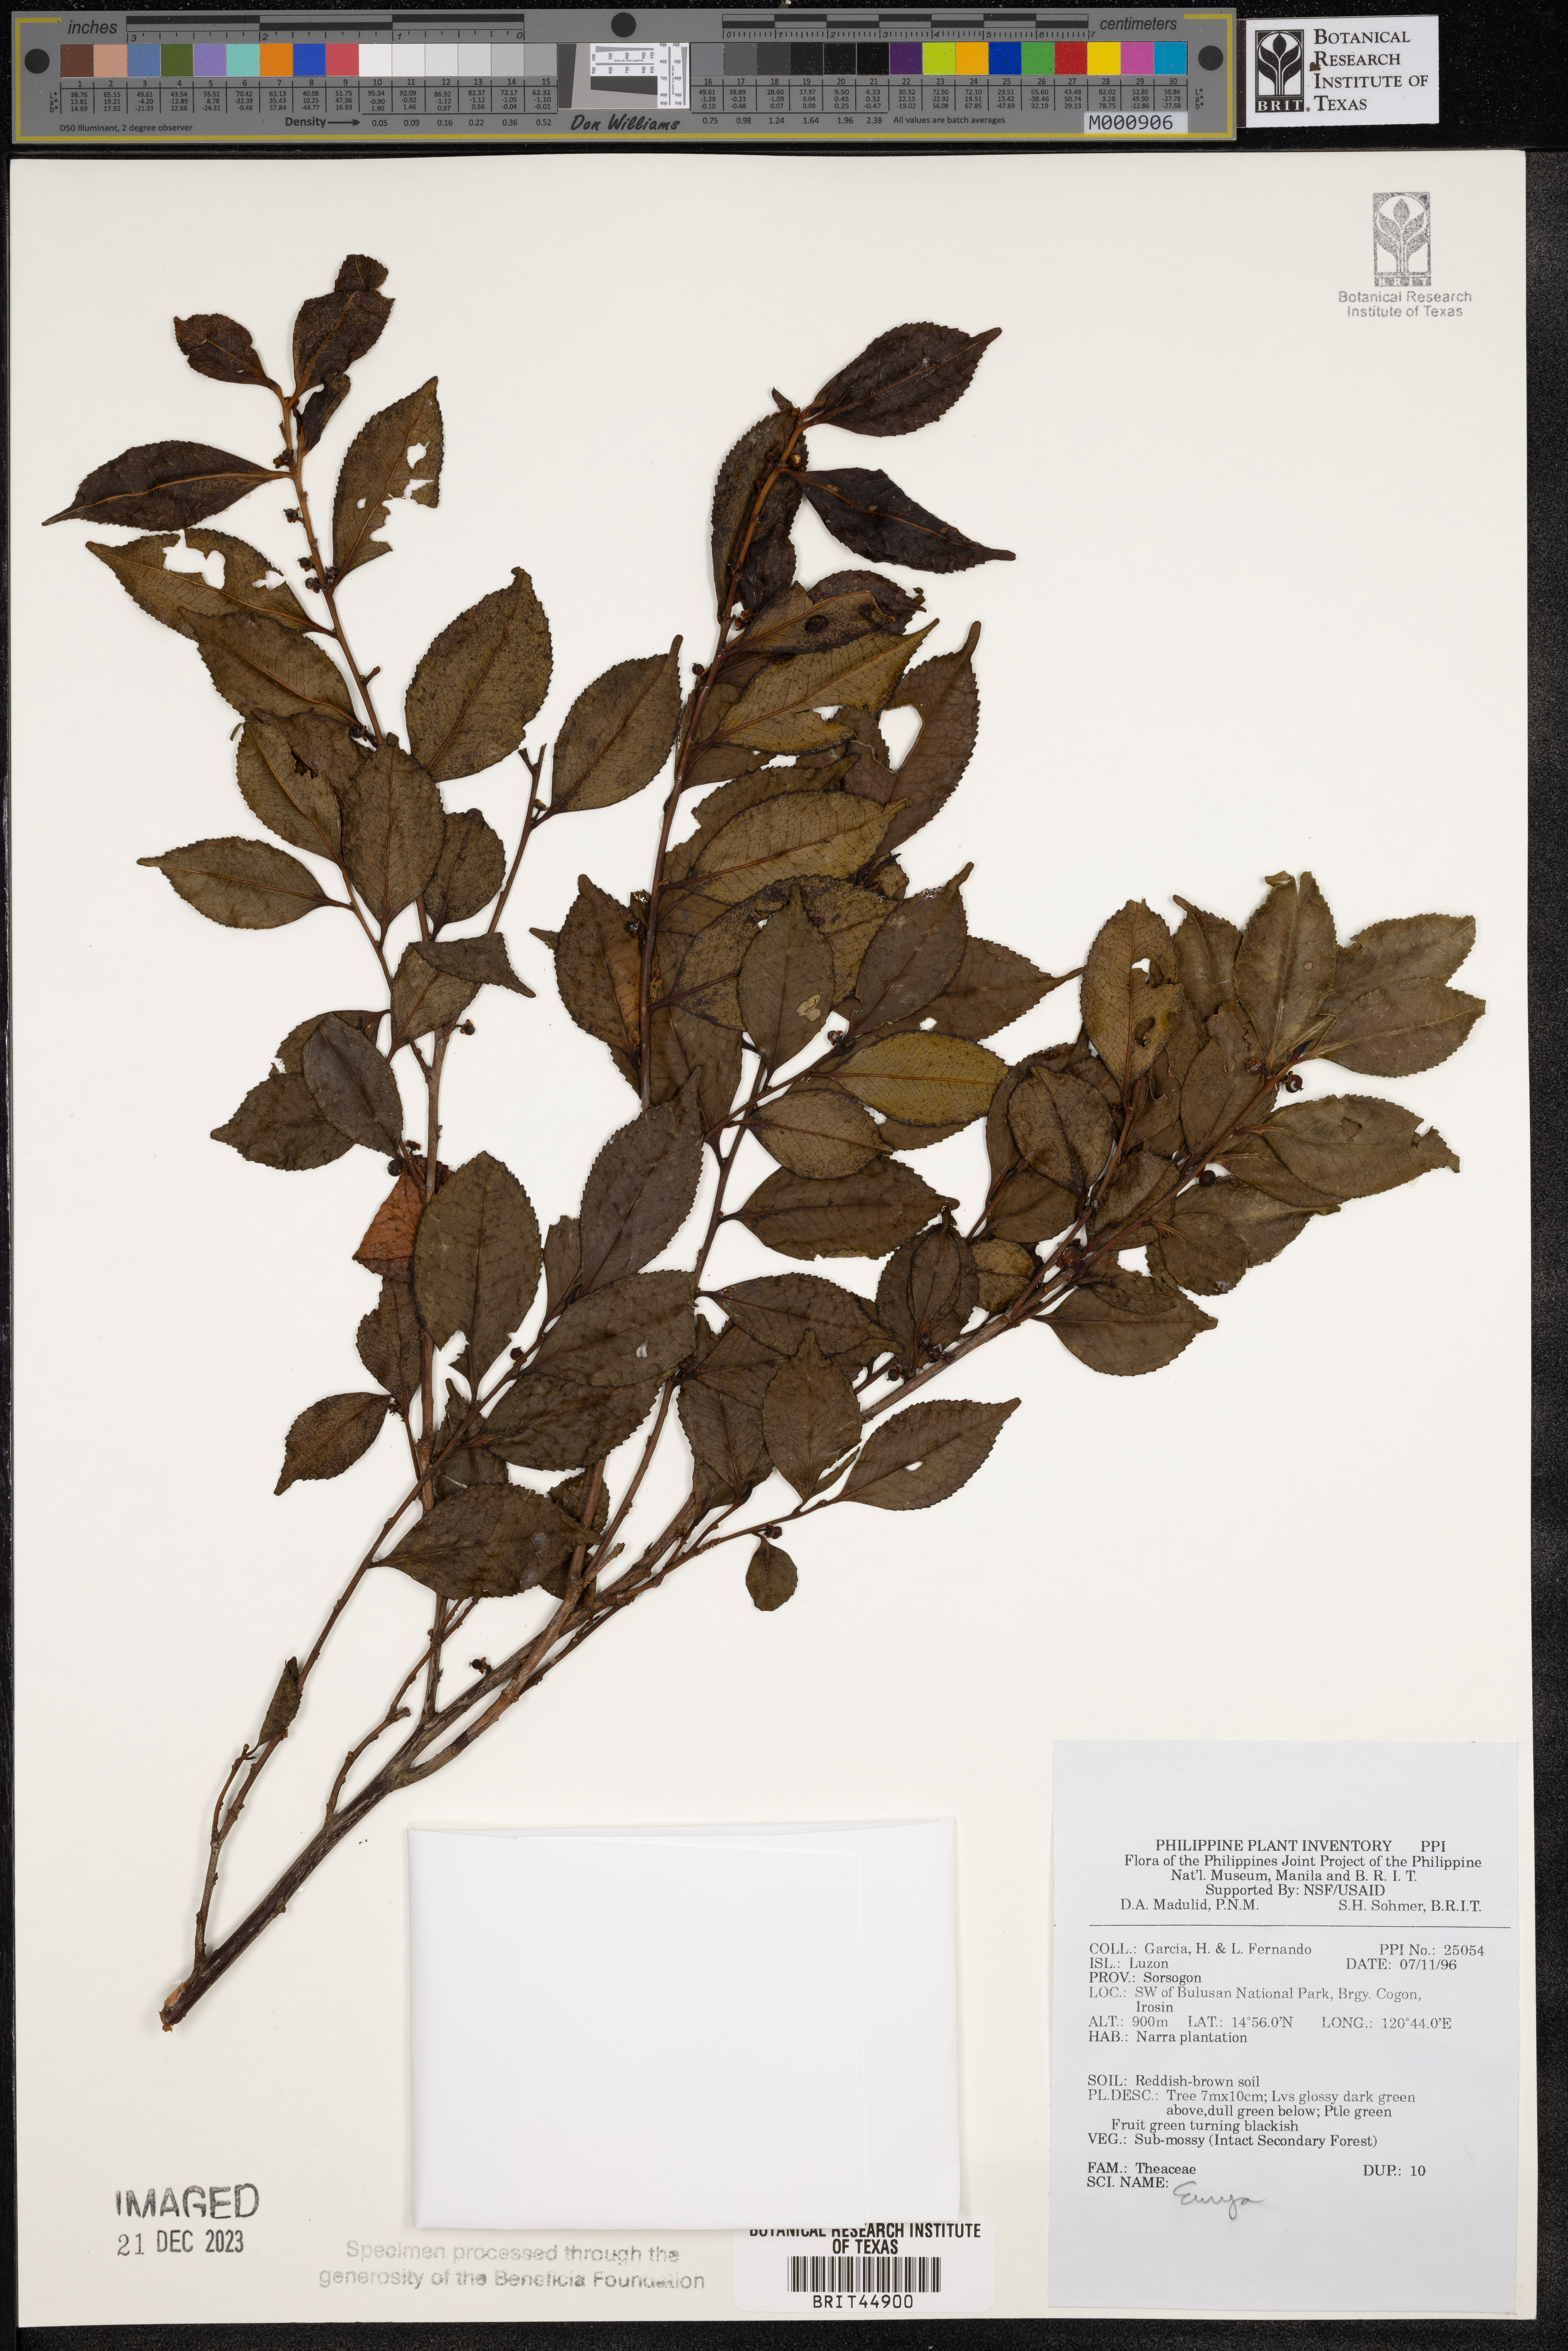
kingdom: Plantae
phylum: Tracheophyta
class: Magnoliopsida
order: Ericales
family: Pentaphylacaceae
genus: Eurya
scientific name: Eurya
